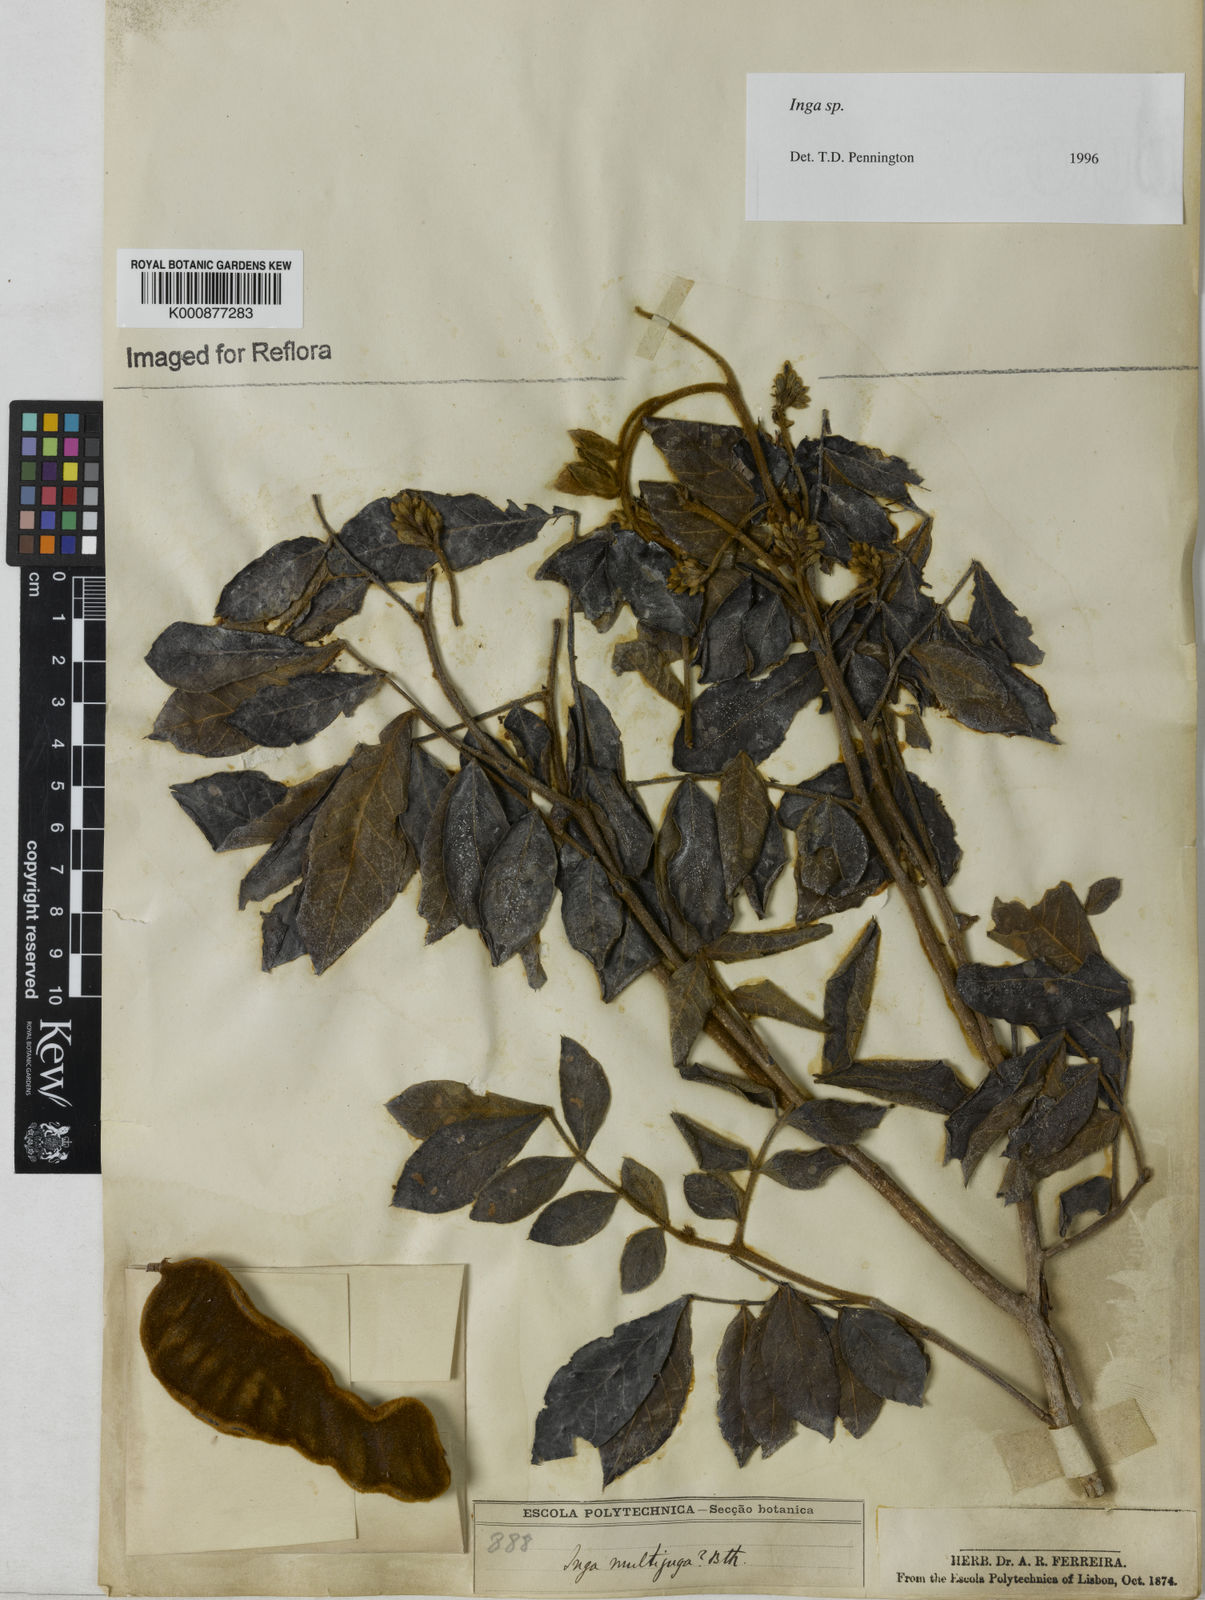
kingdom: Plantae
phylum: Tracheophyta
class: Magnoliopsida
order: Fabales
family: Fabaceae
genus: Inga
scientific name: Inga
